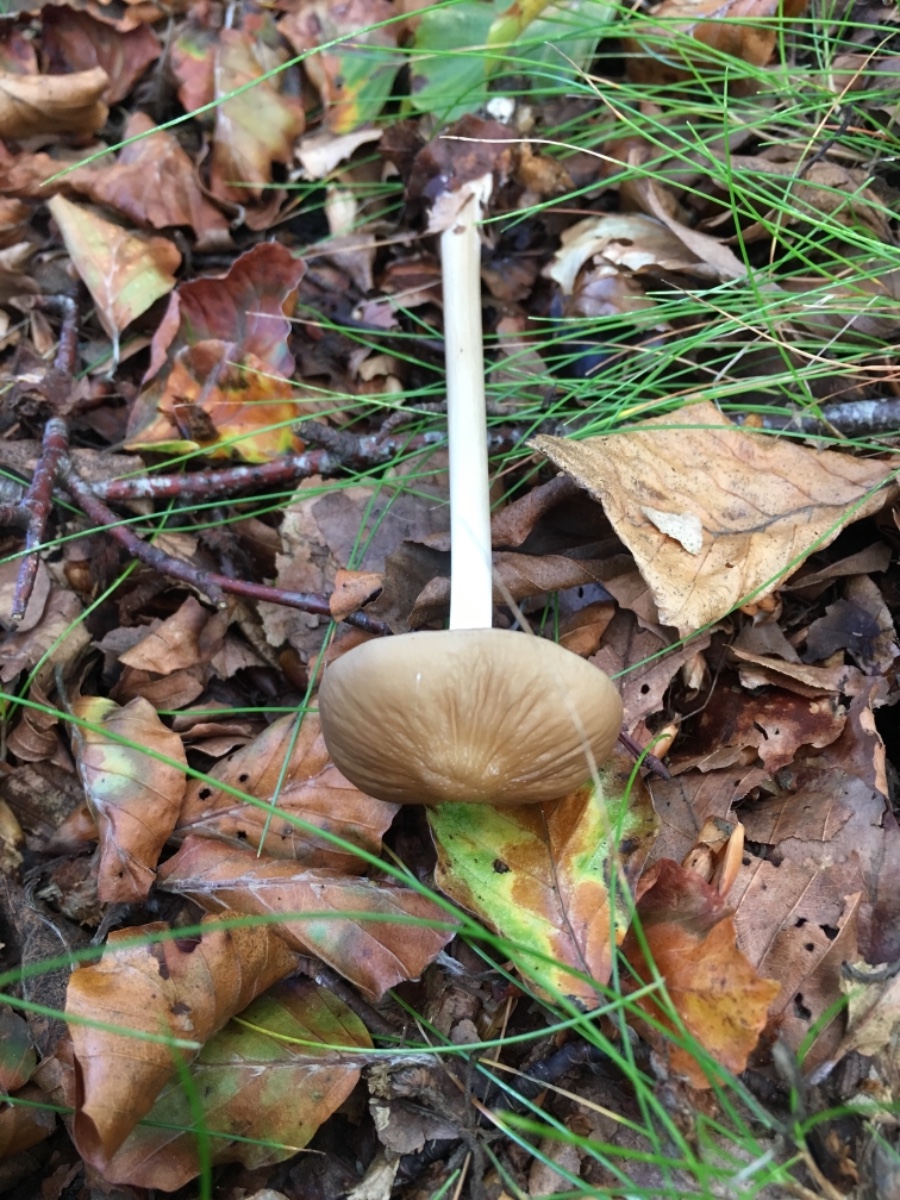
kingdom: Fungi
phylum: Basidiomycota
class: Agaricomycetes
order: Agaricales
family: Physalacriaceae
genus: Hymenopellis
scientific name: Hymenopellis radicata
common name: almindelig pælerodshat
